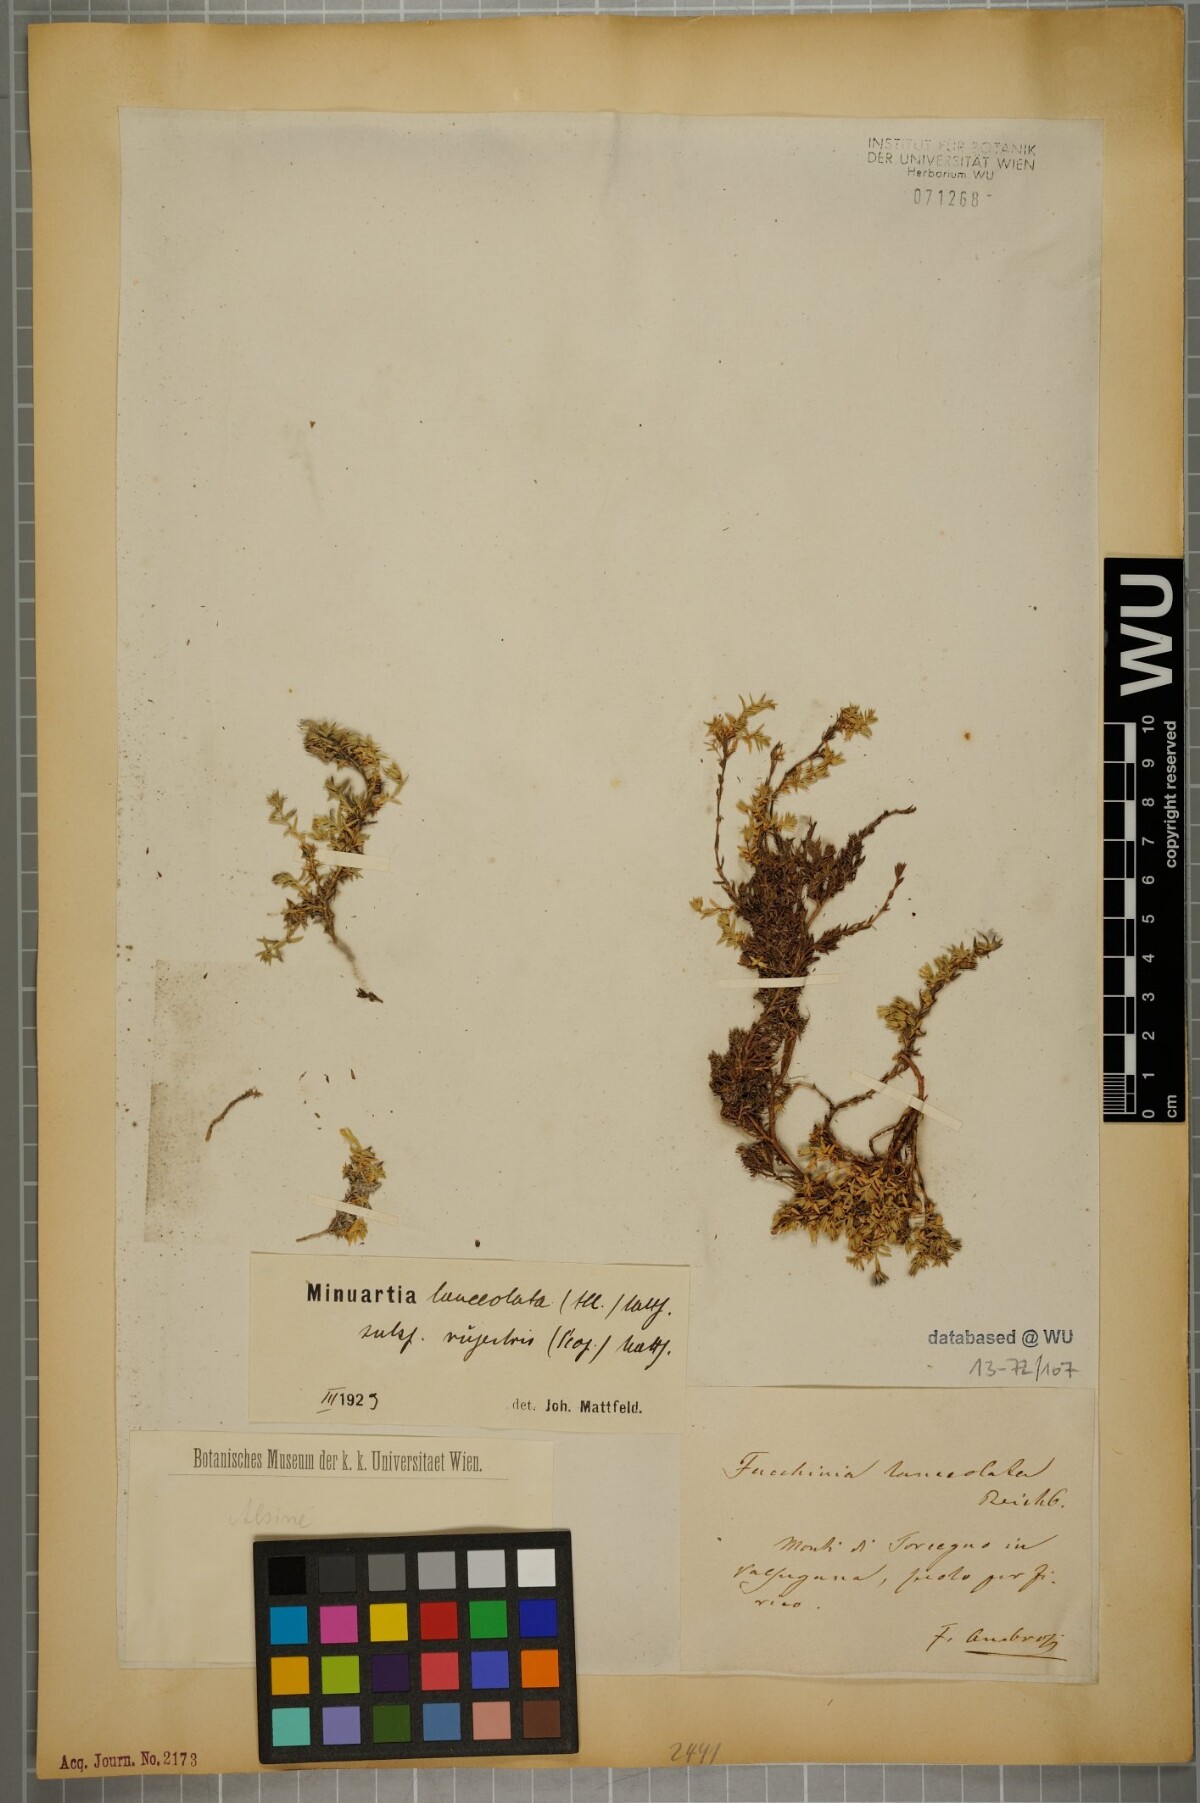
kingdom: Plantae
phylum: Tracheophyta
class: Magnoliopsida
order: Caryophyllales
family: Caryophyllaceae
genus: Facchinia
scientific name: Facchinia rupestris
